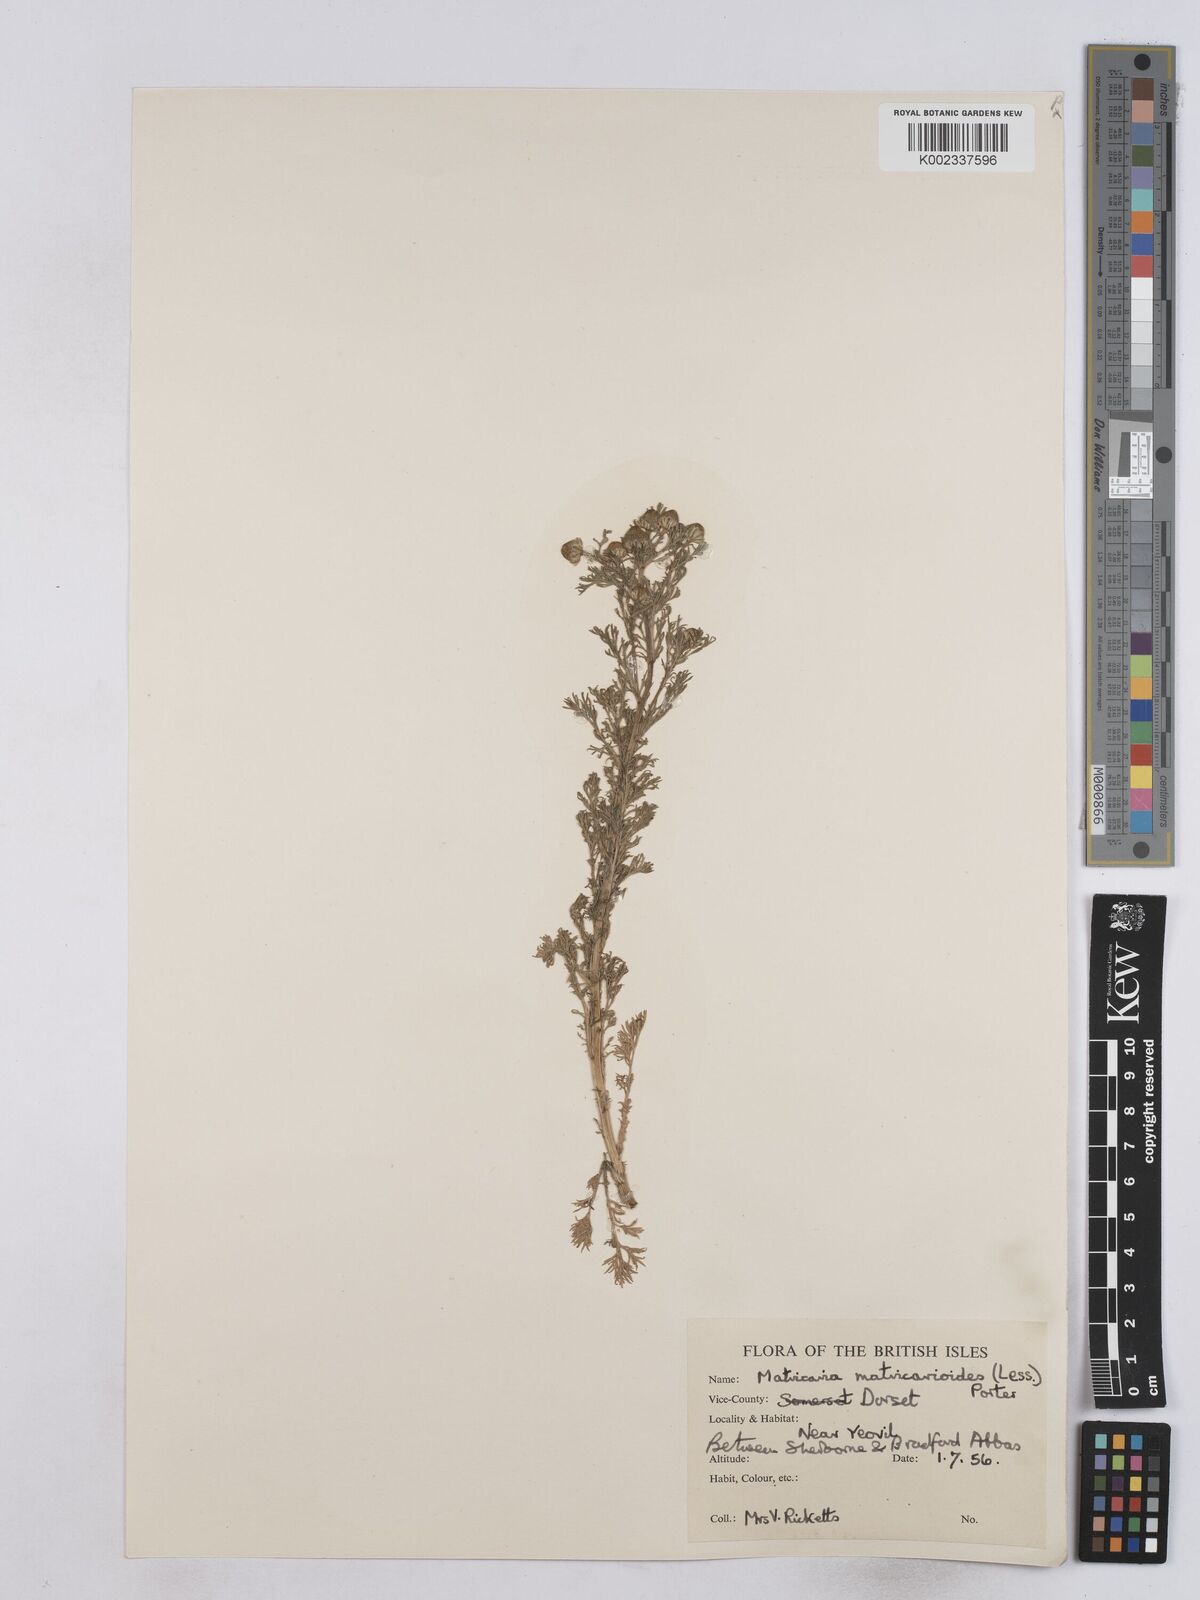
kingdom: Plantae
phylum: Tracheophyta
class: Magnoliopsida
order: Asterales
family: Asteraceae
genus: Matricaria
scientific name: Matricaria discoidea
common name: Disc mayweed
